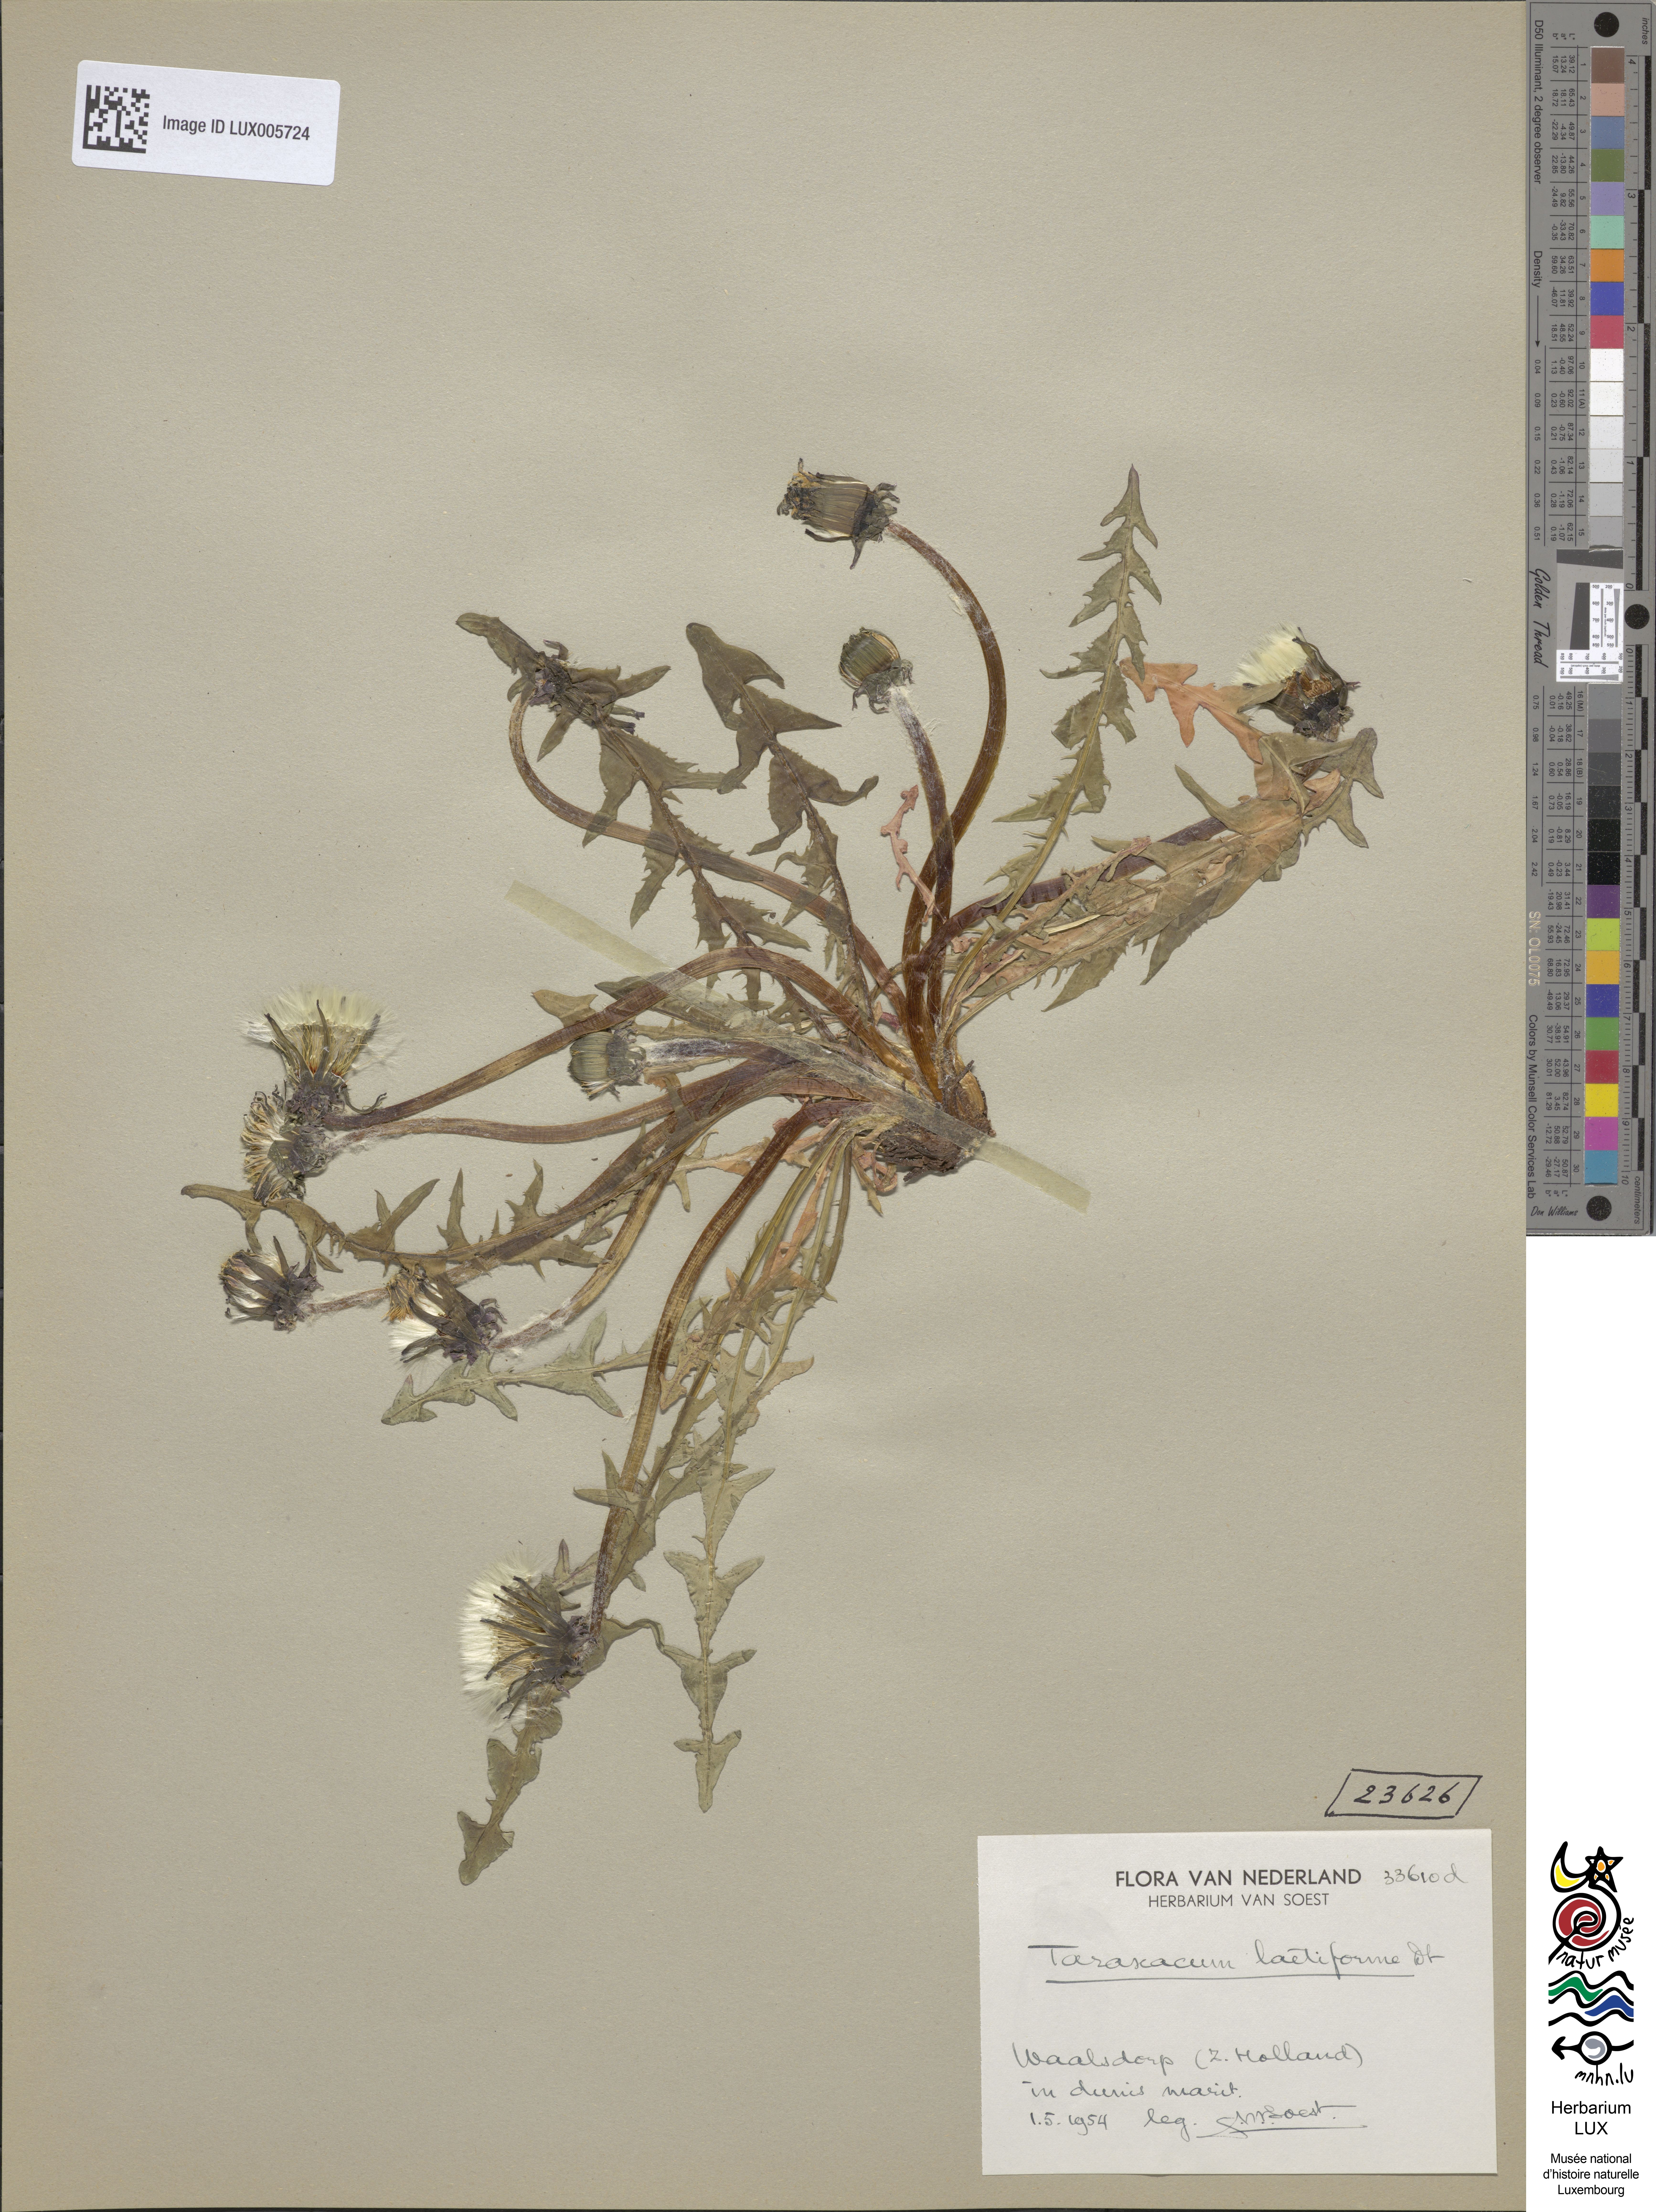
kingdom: Plantae
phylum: Tracheophyta
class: Magnoliopsida
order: Asterales
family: Asteraceae
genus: Taraxacum
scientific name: Taraxacum laetiforme
